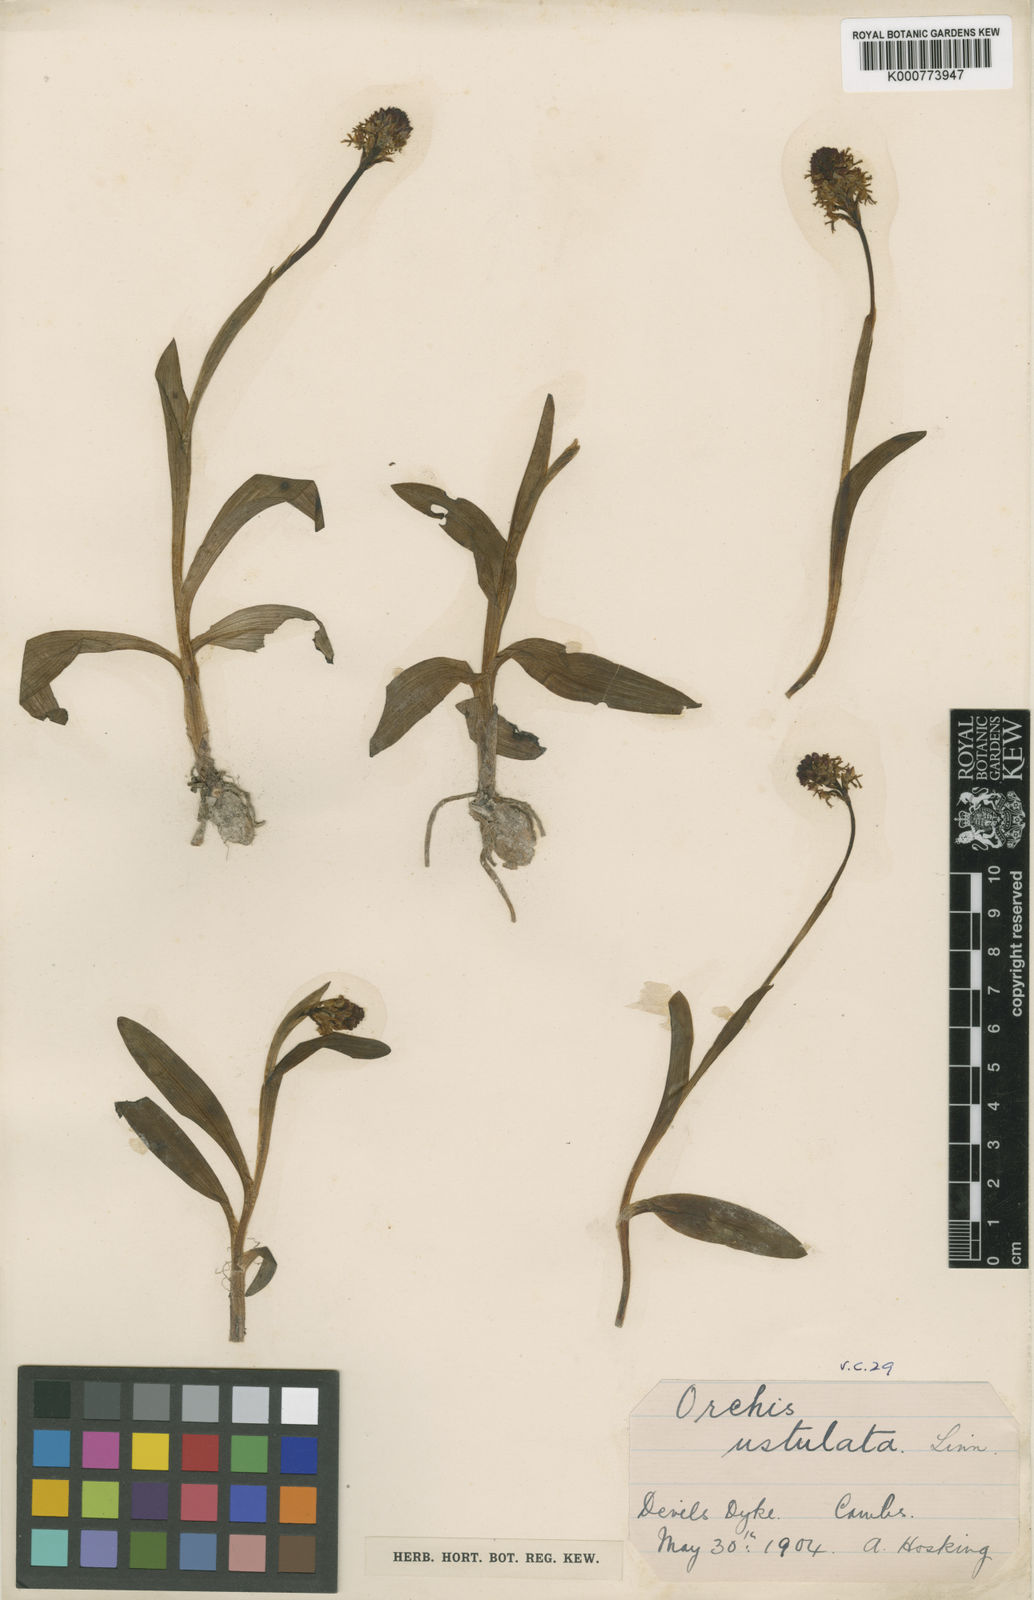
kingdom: Plantae
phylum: Tracheophyta
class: Liliopsida
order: Asparagales
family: Orchidaceae
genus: Neotinea
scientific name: Neotinea ustulata
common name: Burnt orchid
